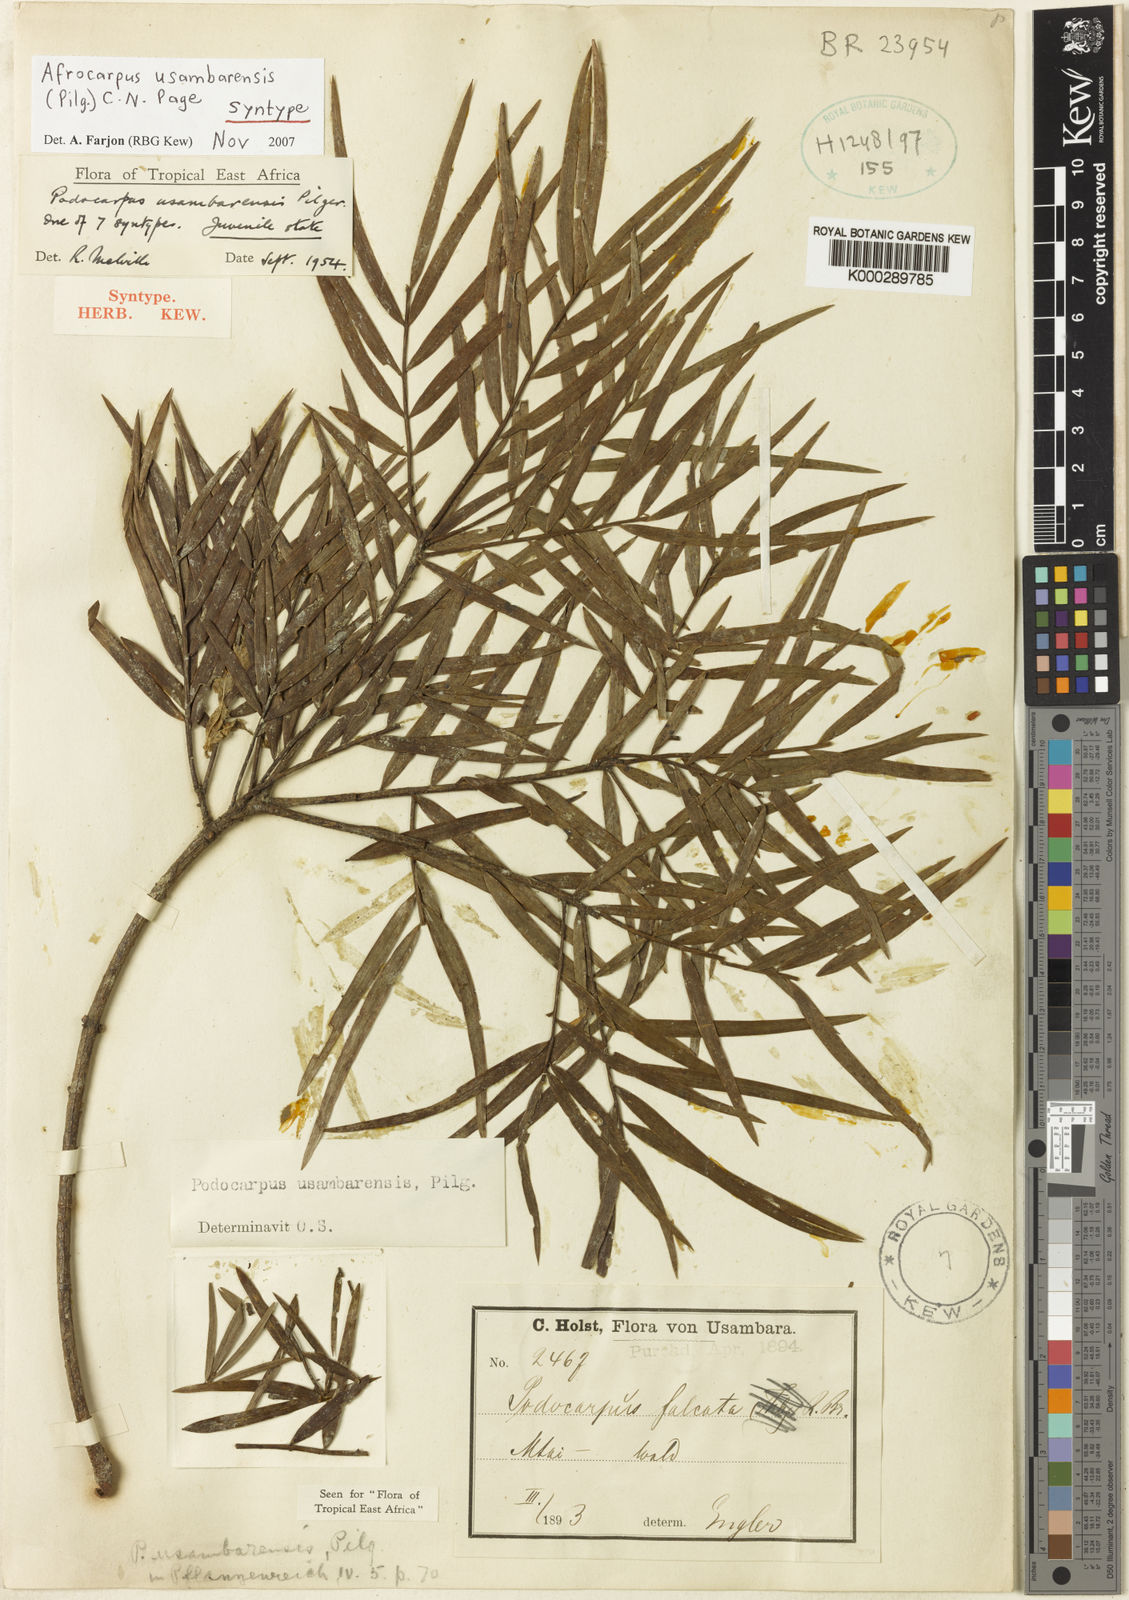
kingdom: Plantae
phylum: Tracheophyta
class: Pinopsida
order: Pinales
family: Podocarpaceae
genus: Afrocarpus
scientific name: Afrocarpus usambarensis
